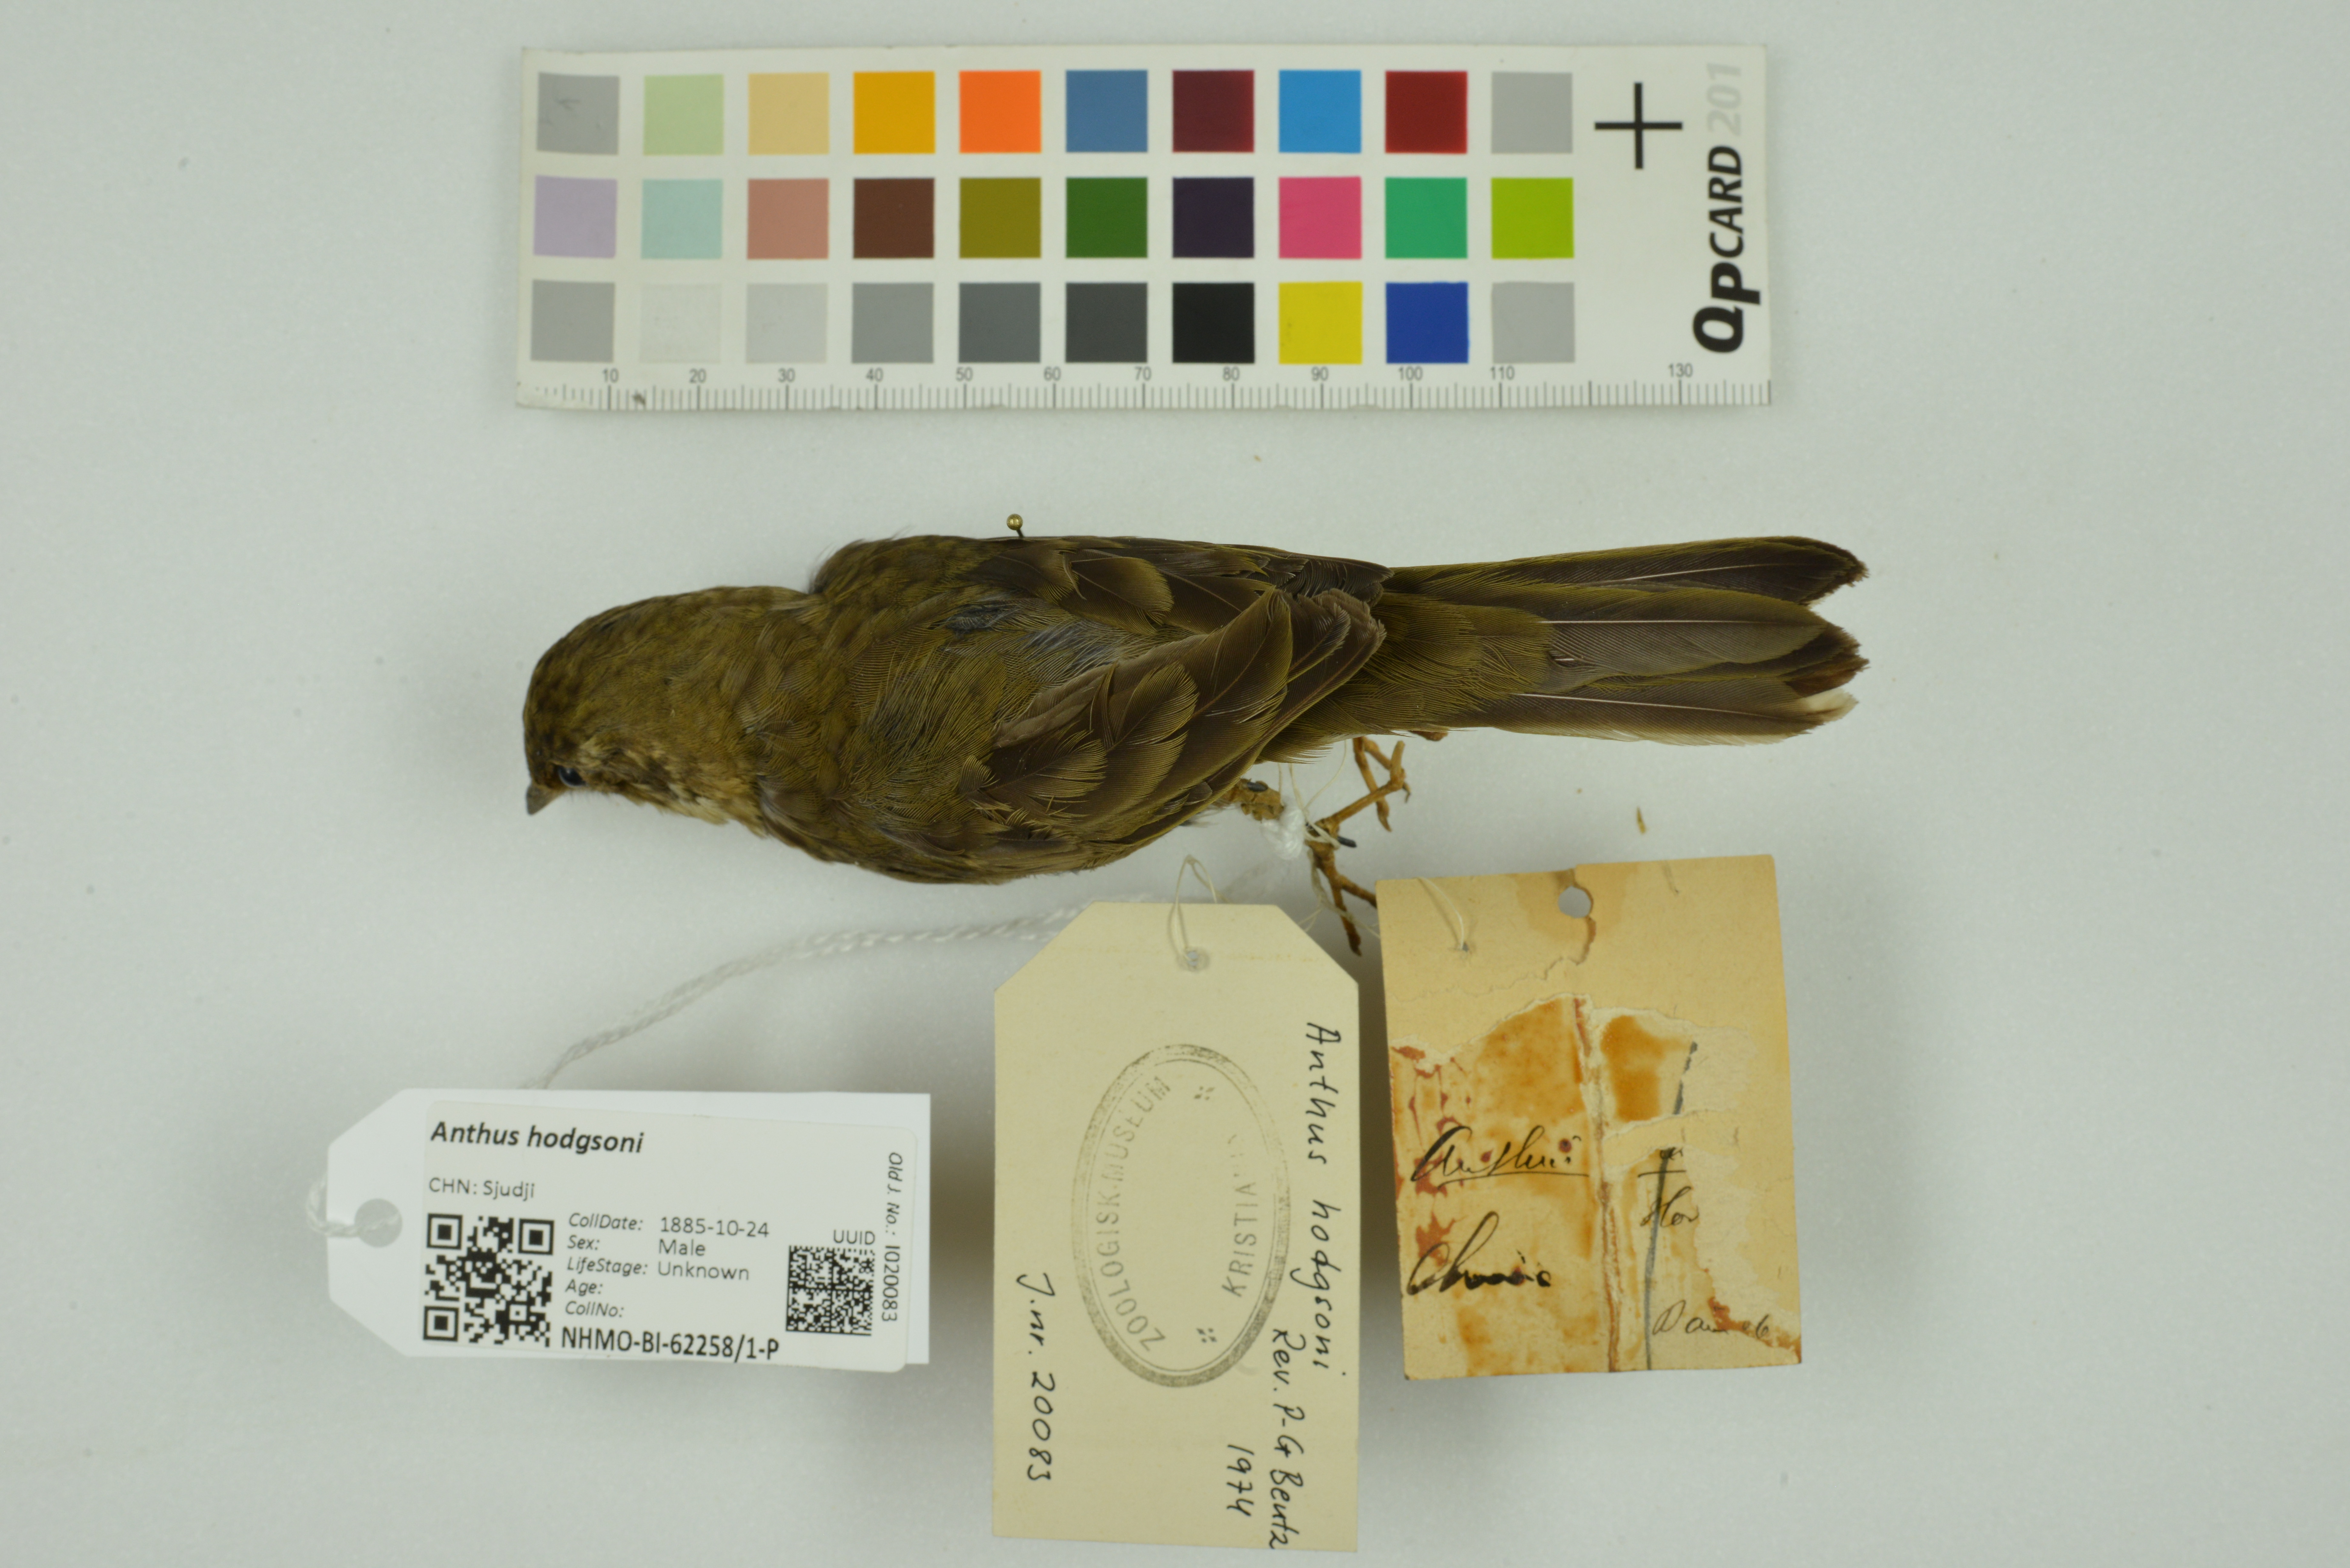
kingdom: Animalia
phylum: Chordata
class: Aves
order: Passeriformes
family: Motacillidae
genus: Anthus
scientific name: Anthus hodgsoni
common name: Olive-backed pipit
